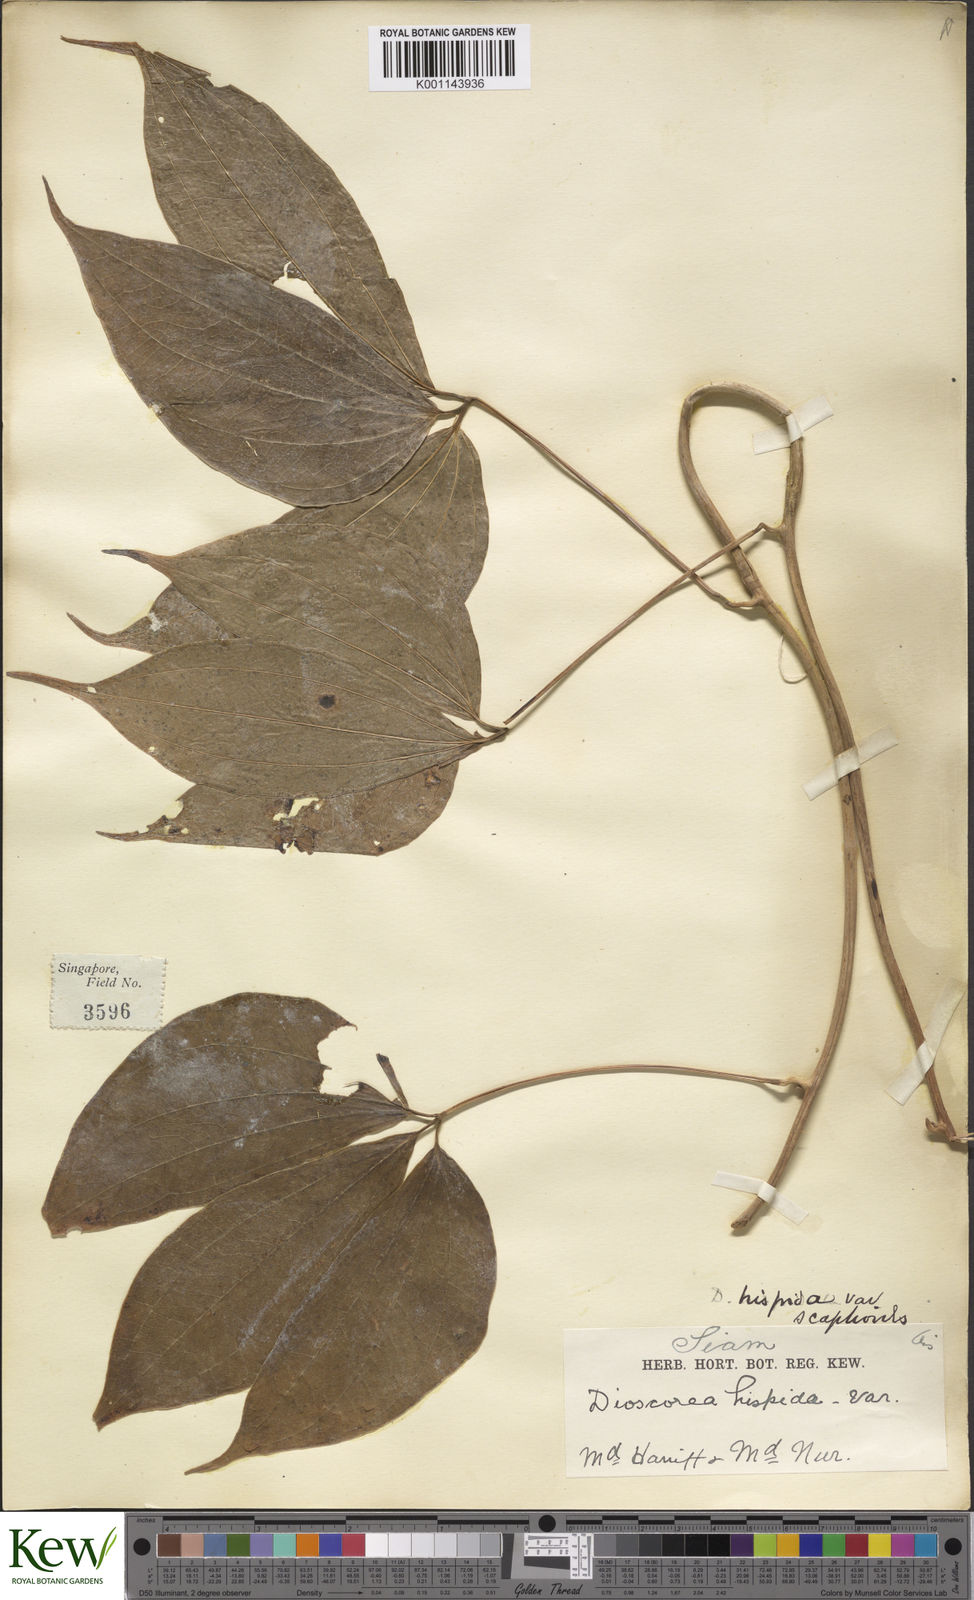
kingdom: Plantae
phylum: Tracheophyta
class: Liliopsida
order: Dioscoreales
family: Dioscoreaceae
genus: Dioscorea
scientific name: Dioscorea hispida
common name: Asiatic bitter yam
